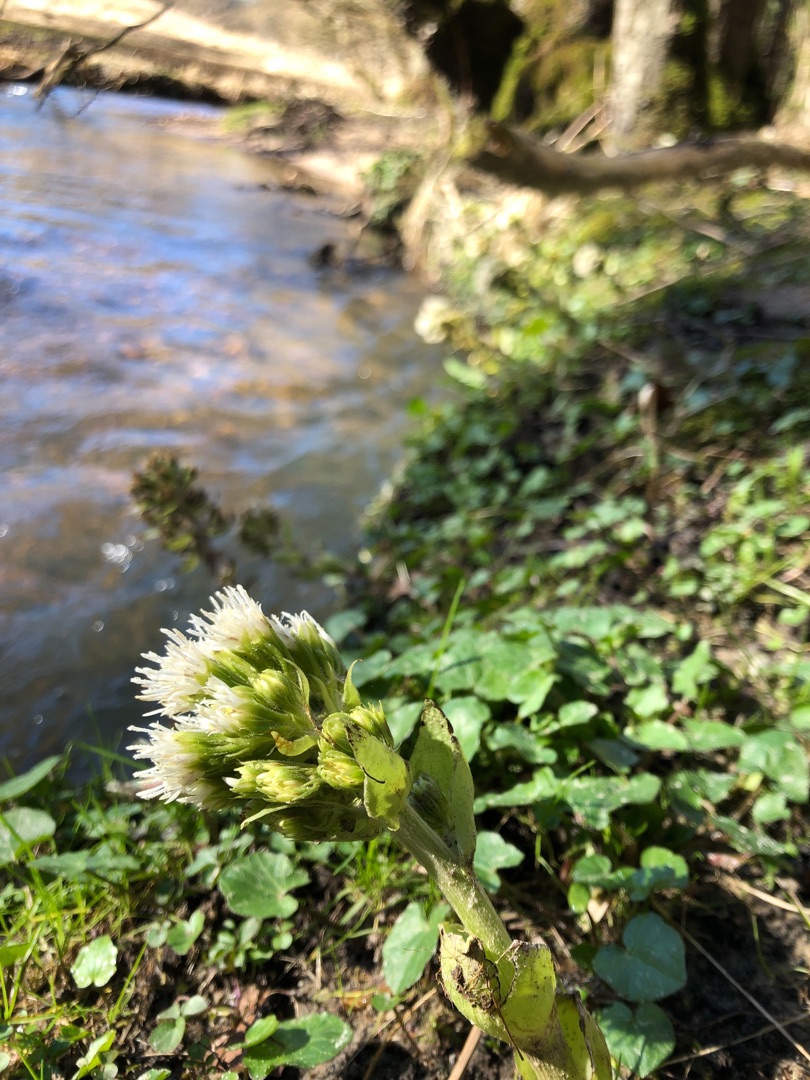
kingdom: Plantae
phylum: Tracheophyta
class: Magnoliopsida
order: Asterales
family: Asteraceae
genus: Petasites
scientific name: Petasites albus
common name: Hvid hestehov
